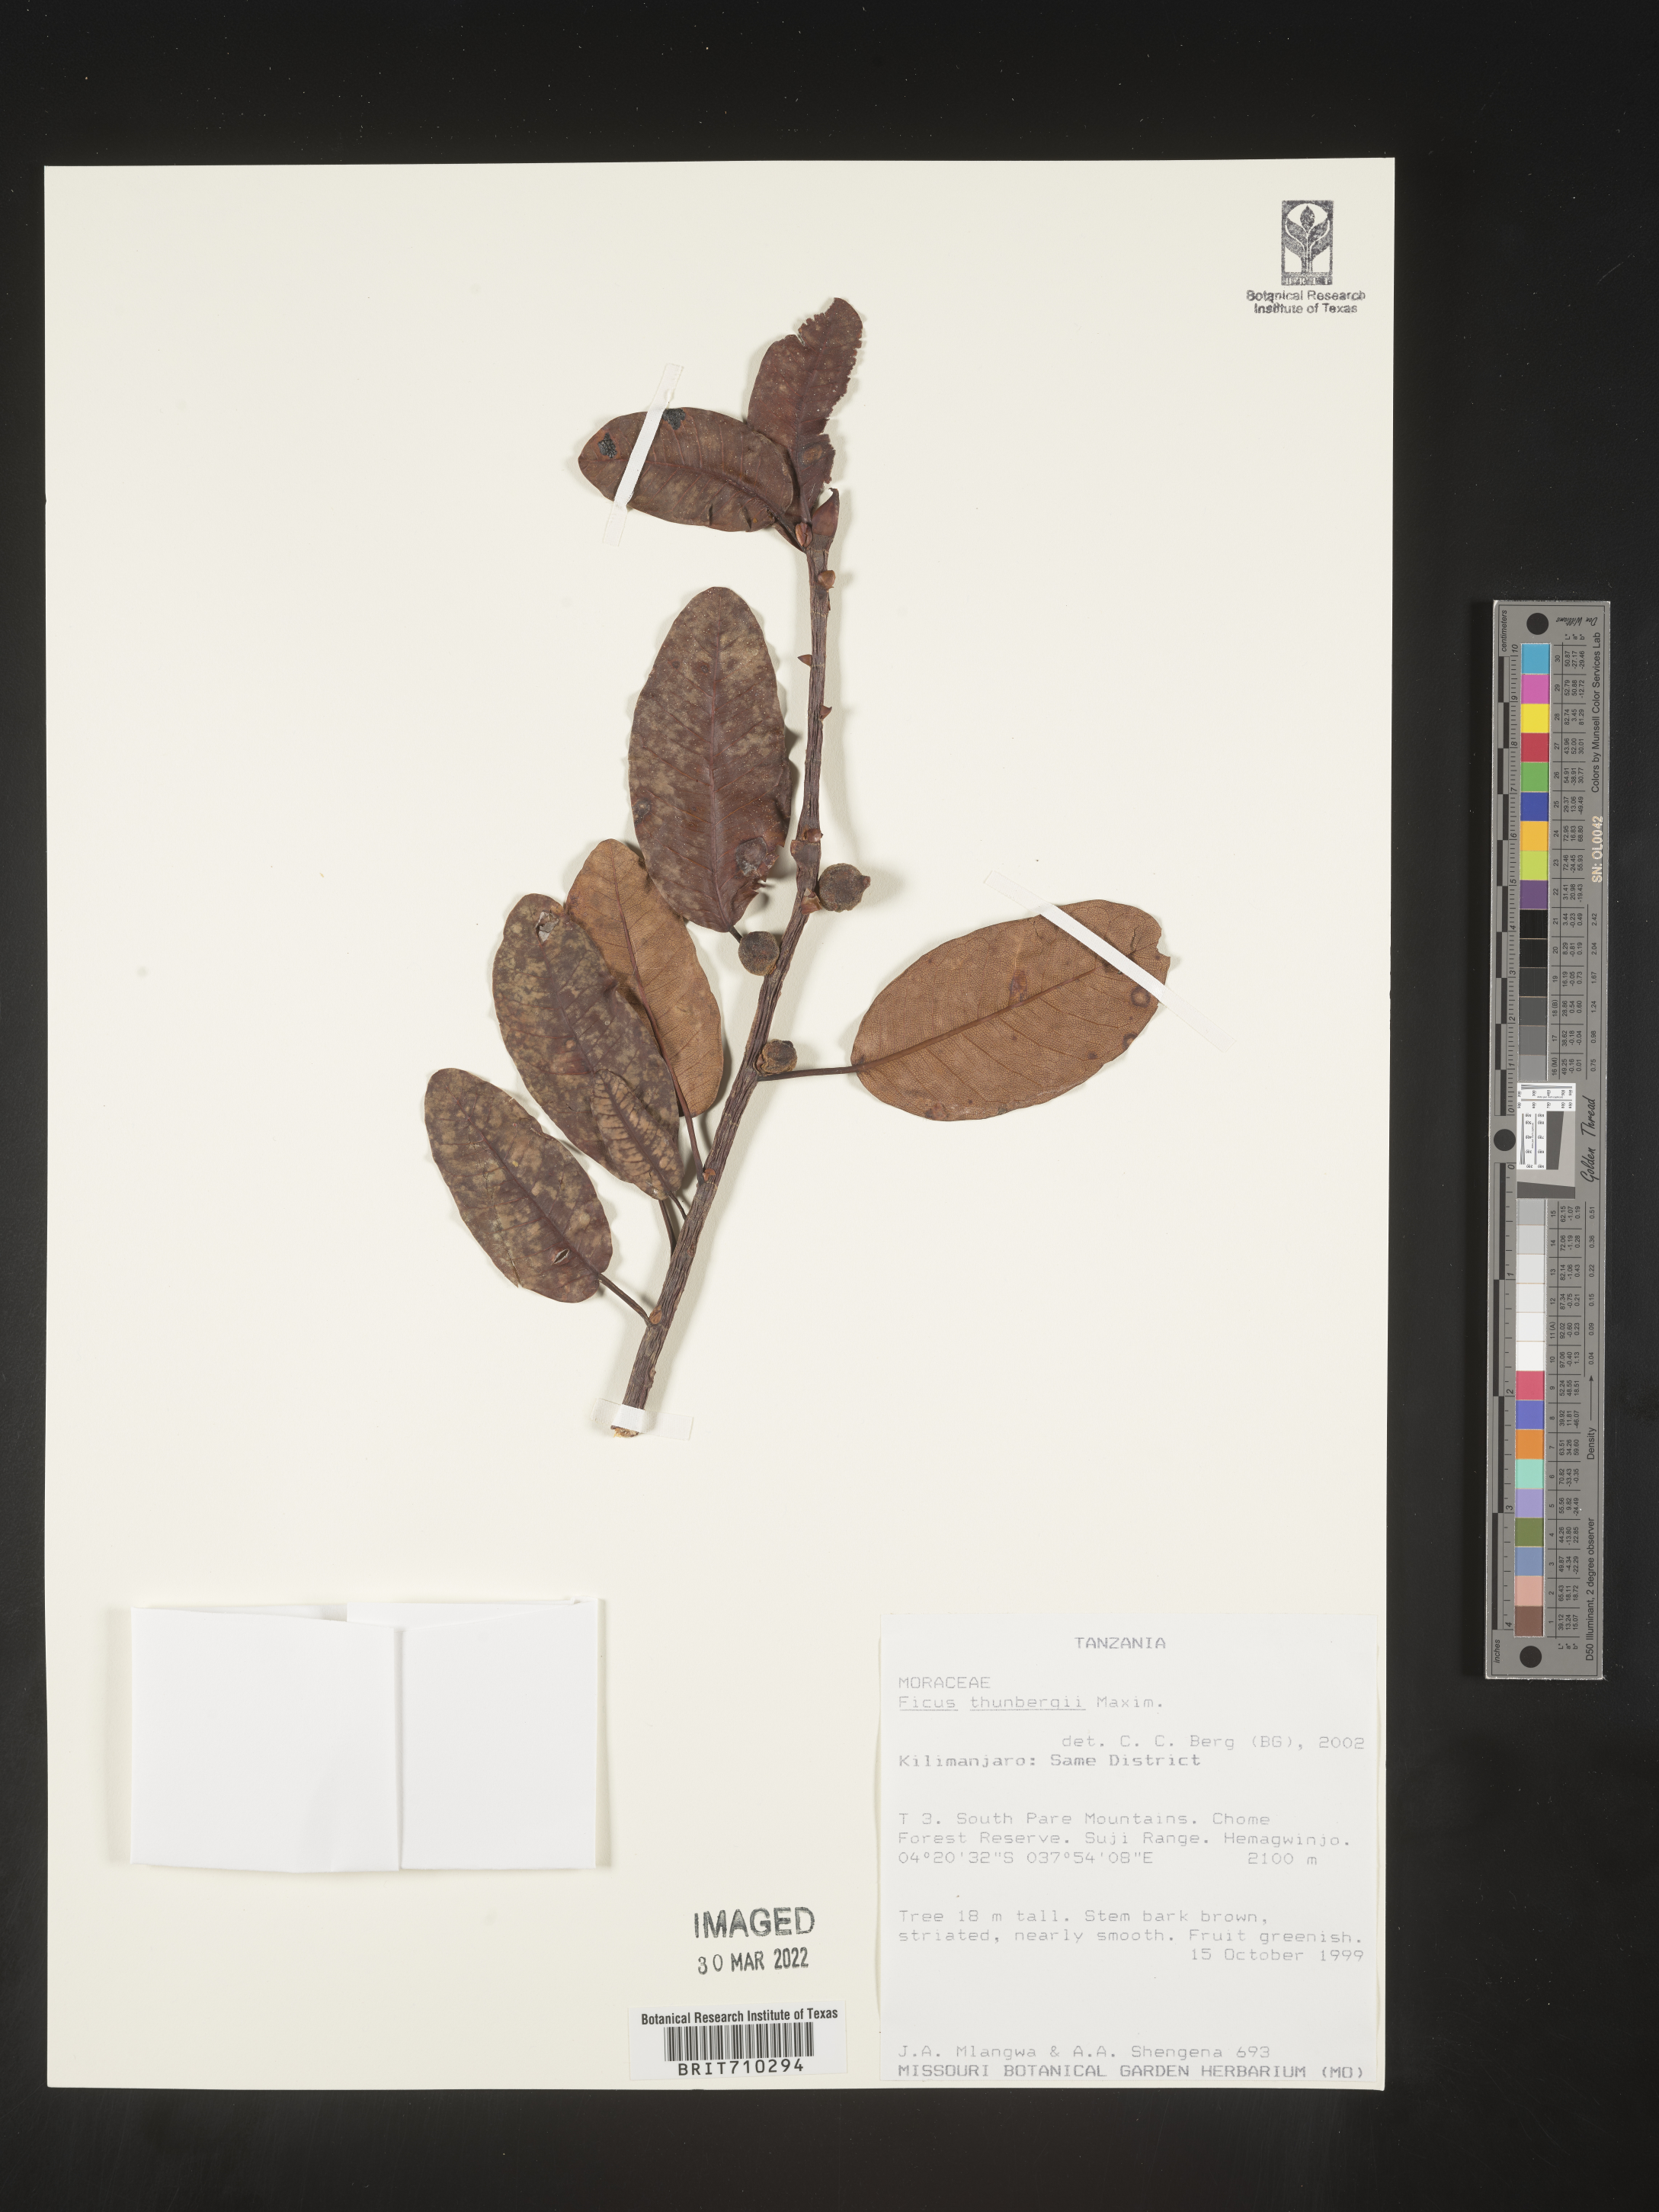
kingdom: Plantae
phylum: Tracheophyta
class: Magnoliopsida
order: Rosales
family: Moraceae
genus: Ficus
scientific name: Ficus
